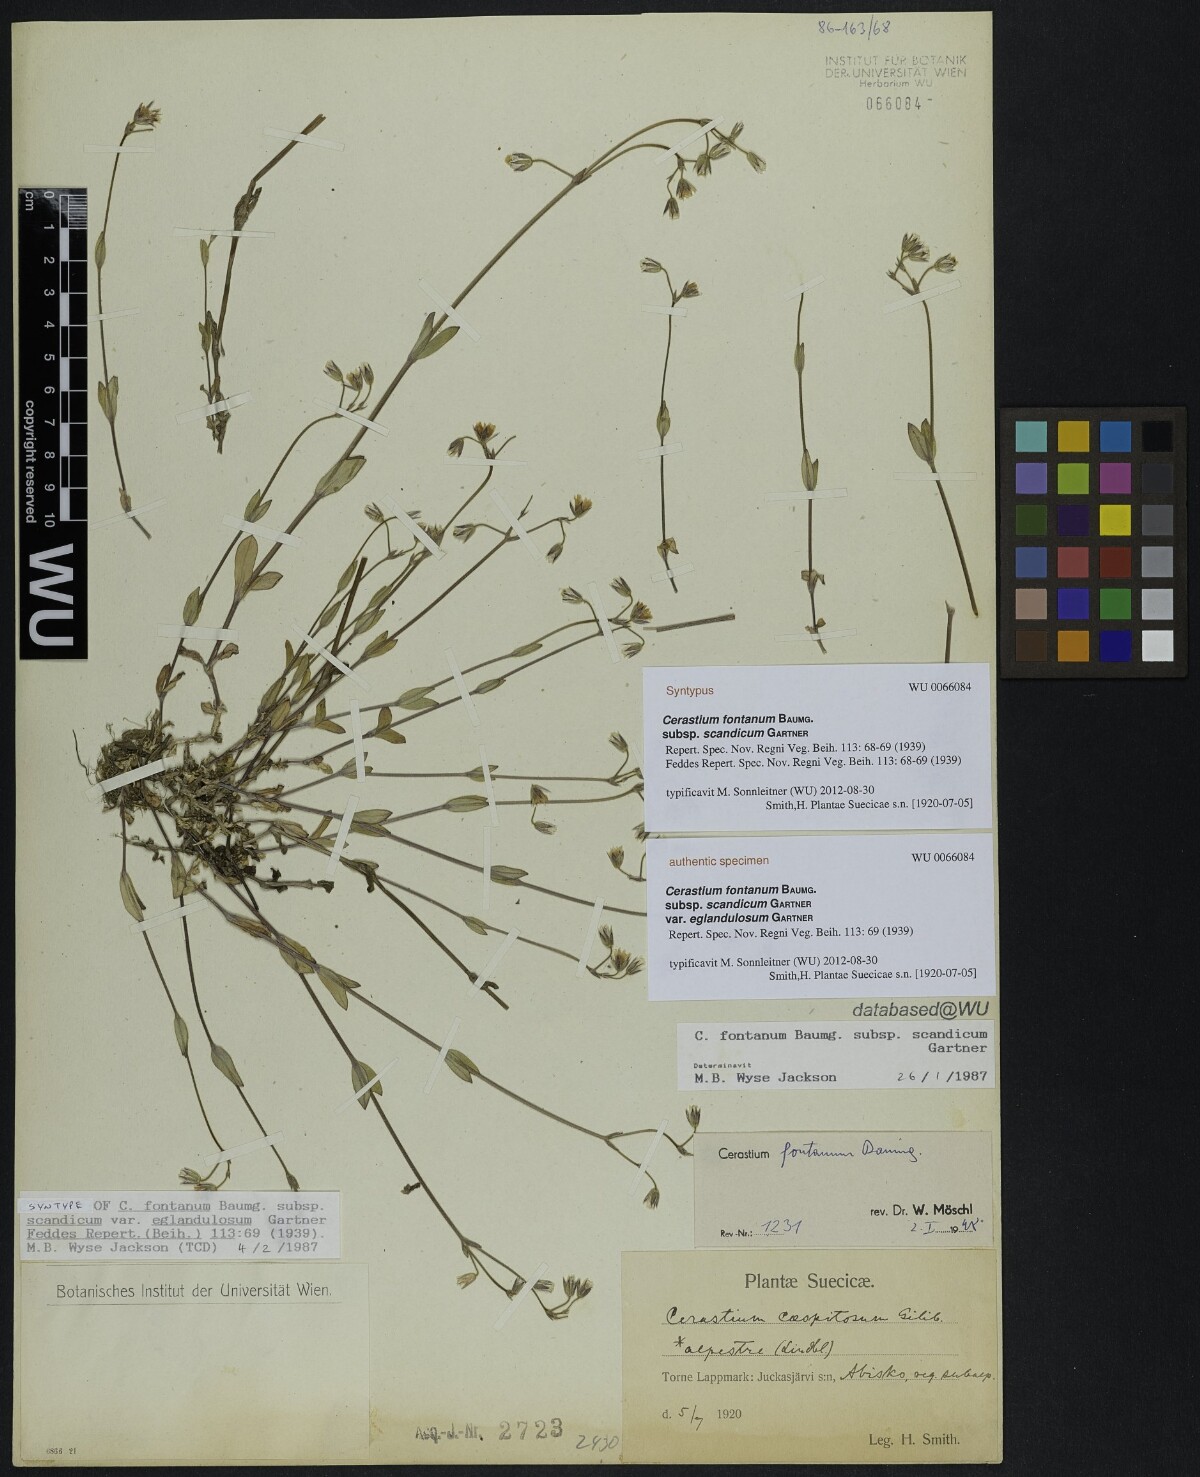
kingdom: Plantae
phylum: Tracheophyta
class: Magnoliopsida
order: Caryophyllales
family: Caryophyllaceae
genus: Cerastium
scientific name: Cerastium holosteoides
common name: Big chickweed
